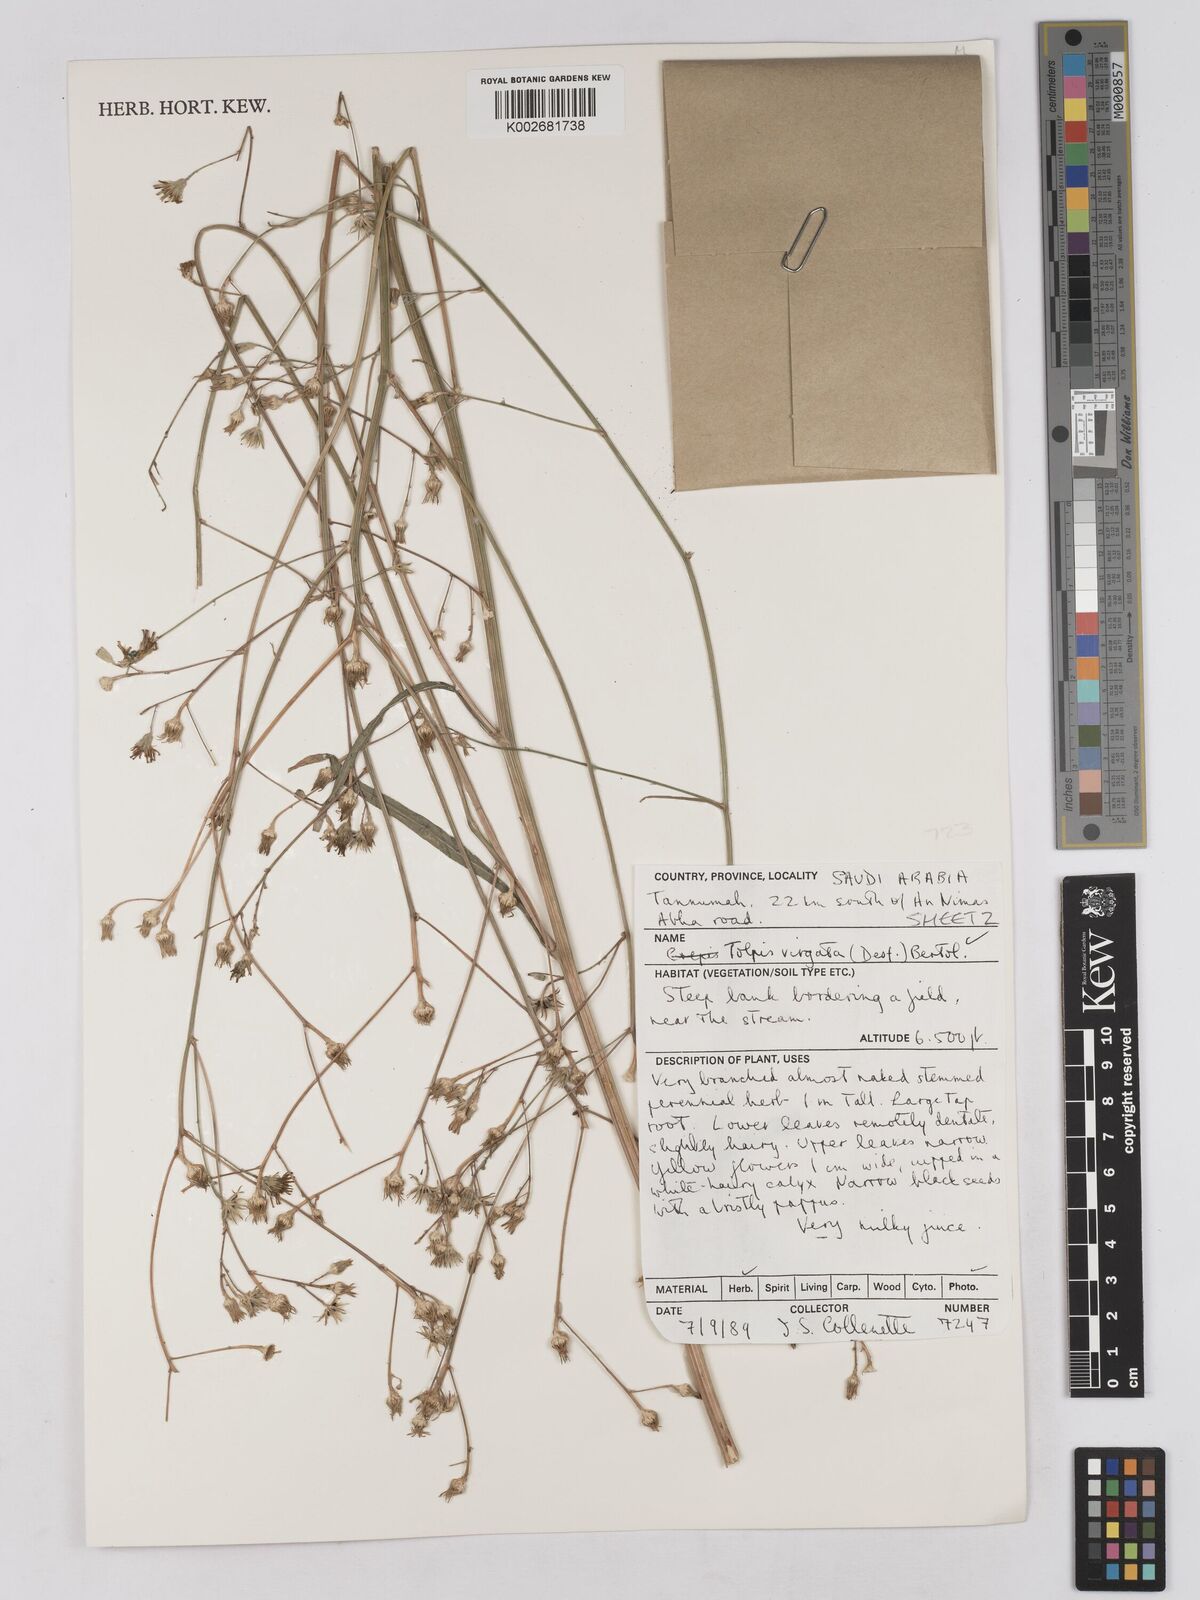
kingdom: Plantae
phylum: Tracheophyta
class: Magnoliopsida
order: Asterales
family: Asteraceae
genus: Tolpis
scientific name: Tolpis virgata
